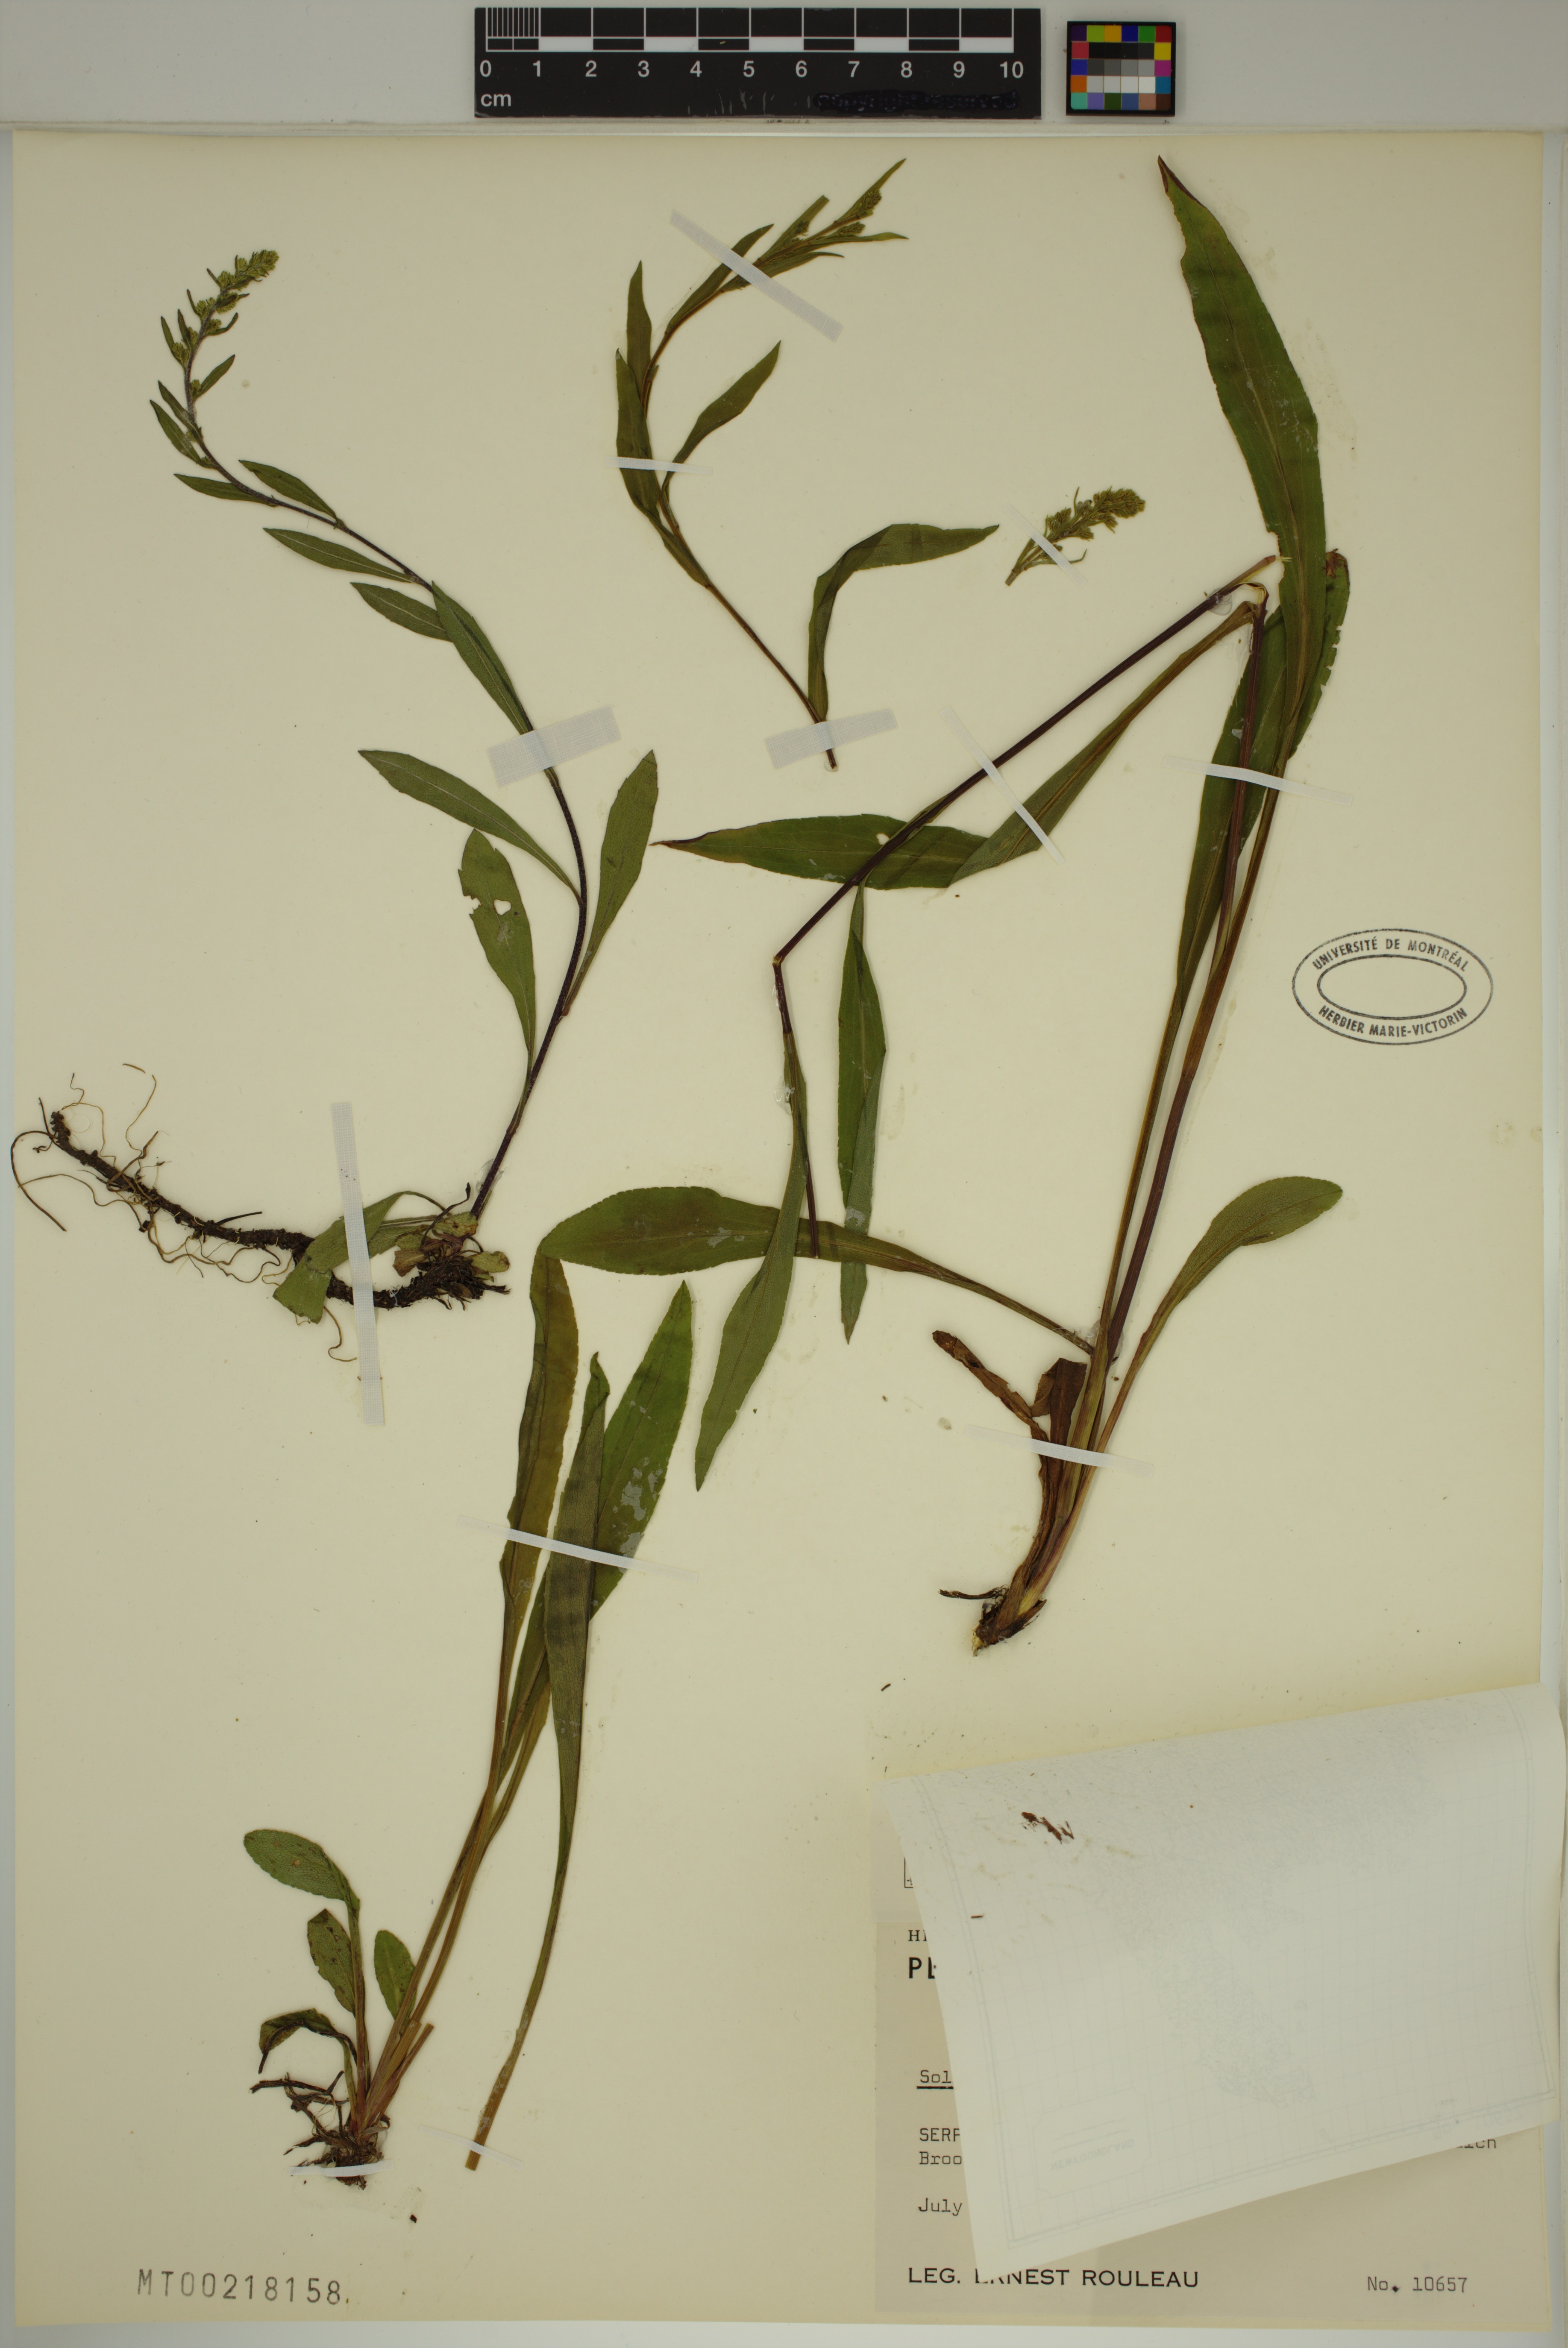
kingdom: Plantae
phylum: Tracheophyta
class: Magnoliopsida
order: Asterales
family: Asteraceae
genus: Solidago
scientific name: Solidago
